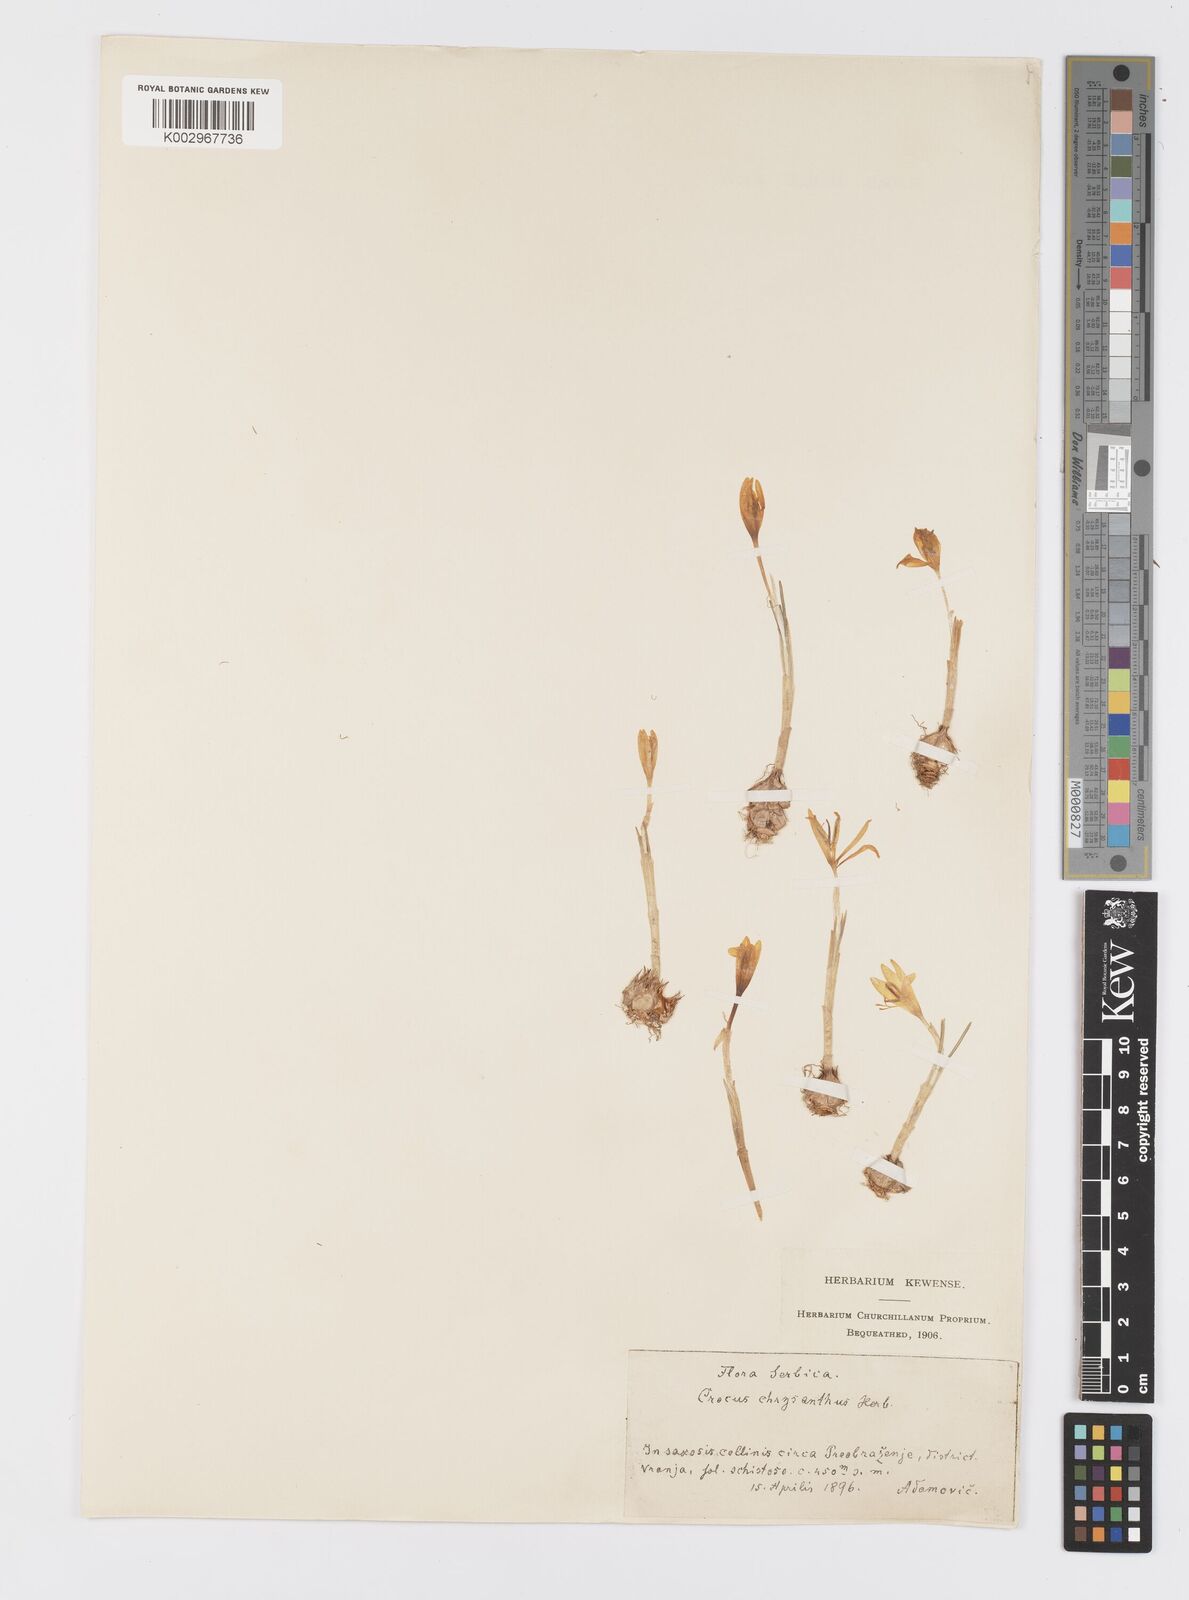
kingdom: Plantae
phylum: Tracheophyta
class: Liliopsida
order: Asparagales
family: Iridaceae
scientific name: Iridaceae
